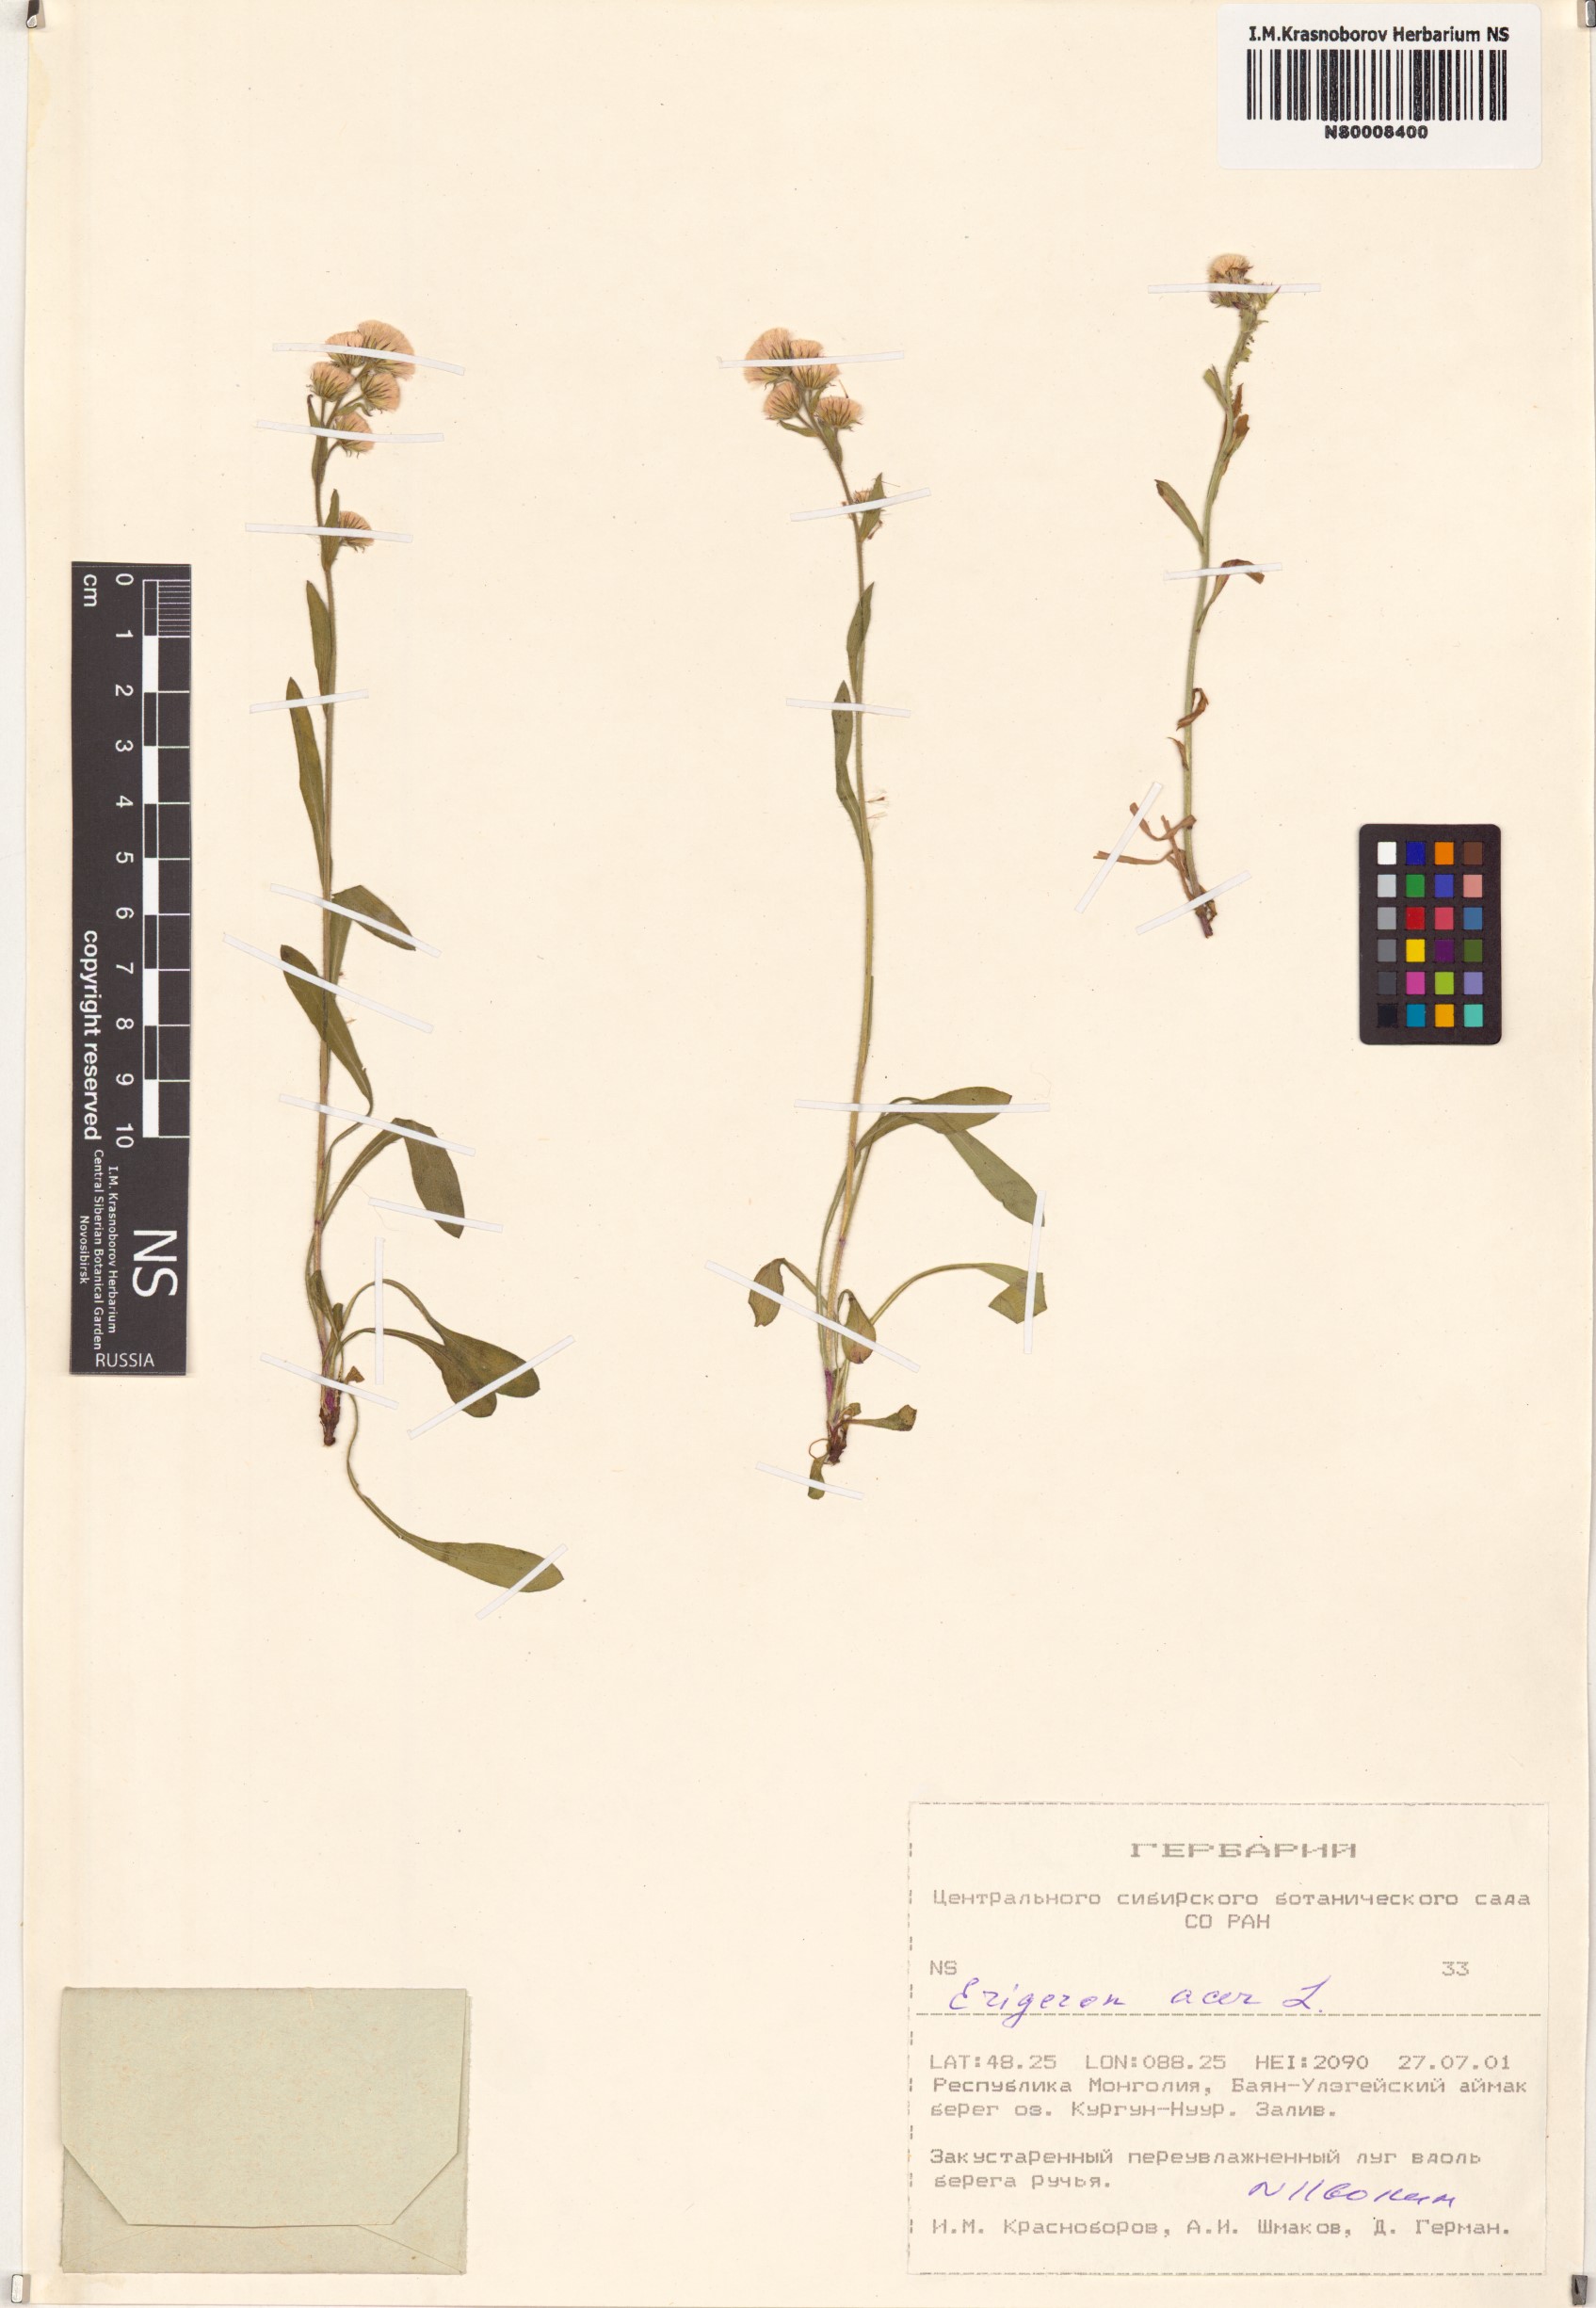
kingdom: Plantae
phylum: Tracheophyta
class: Magnoliopsida
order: Asterales
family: Asteraceae
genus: Erigeron
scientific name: Erigeron acris
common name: Blue fleabane
